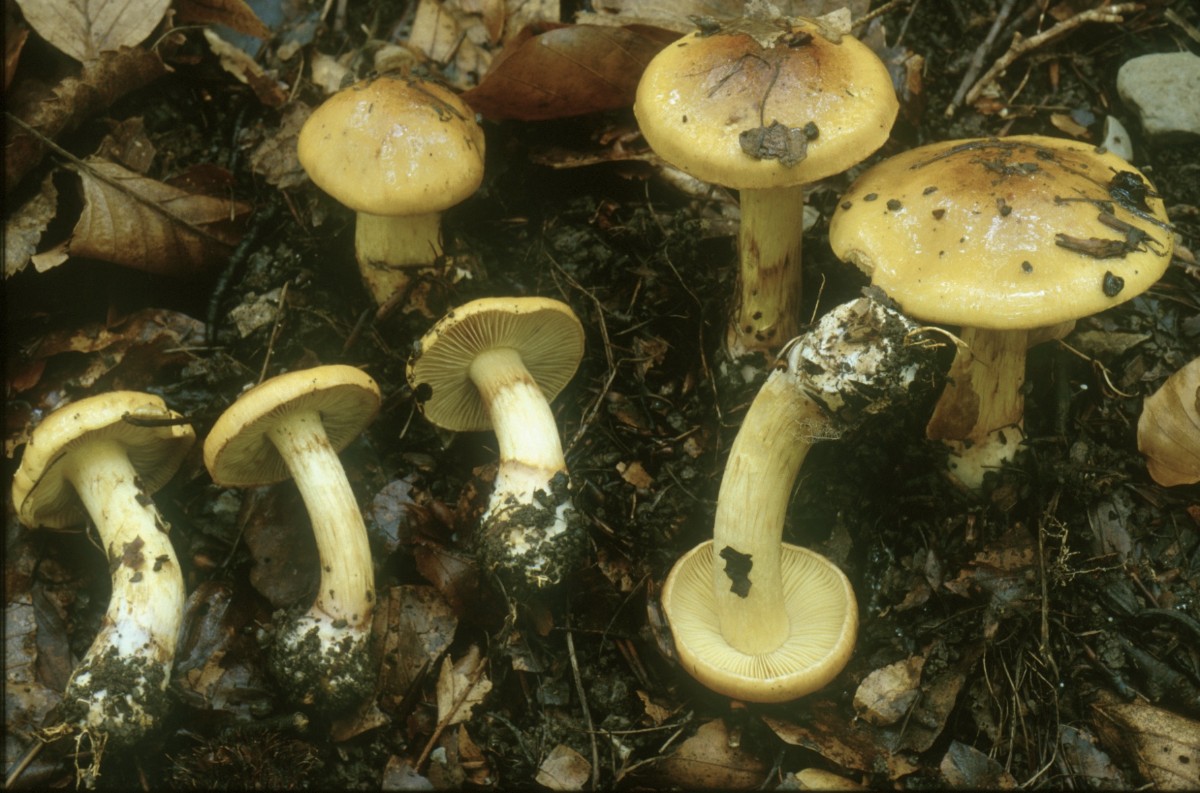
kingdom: Fungi
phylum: Basidiomycota
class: Agaricomycetes
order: Agaricales
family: Cortinariaceae
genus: Cortinarius
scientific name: Cortinarius nanceiensis
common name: banan-slørhat
